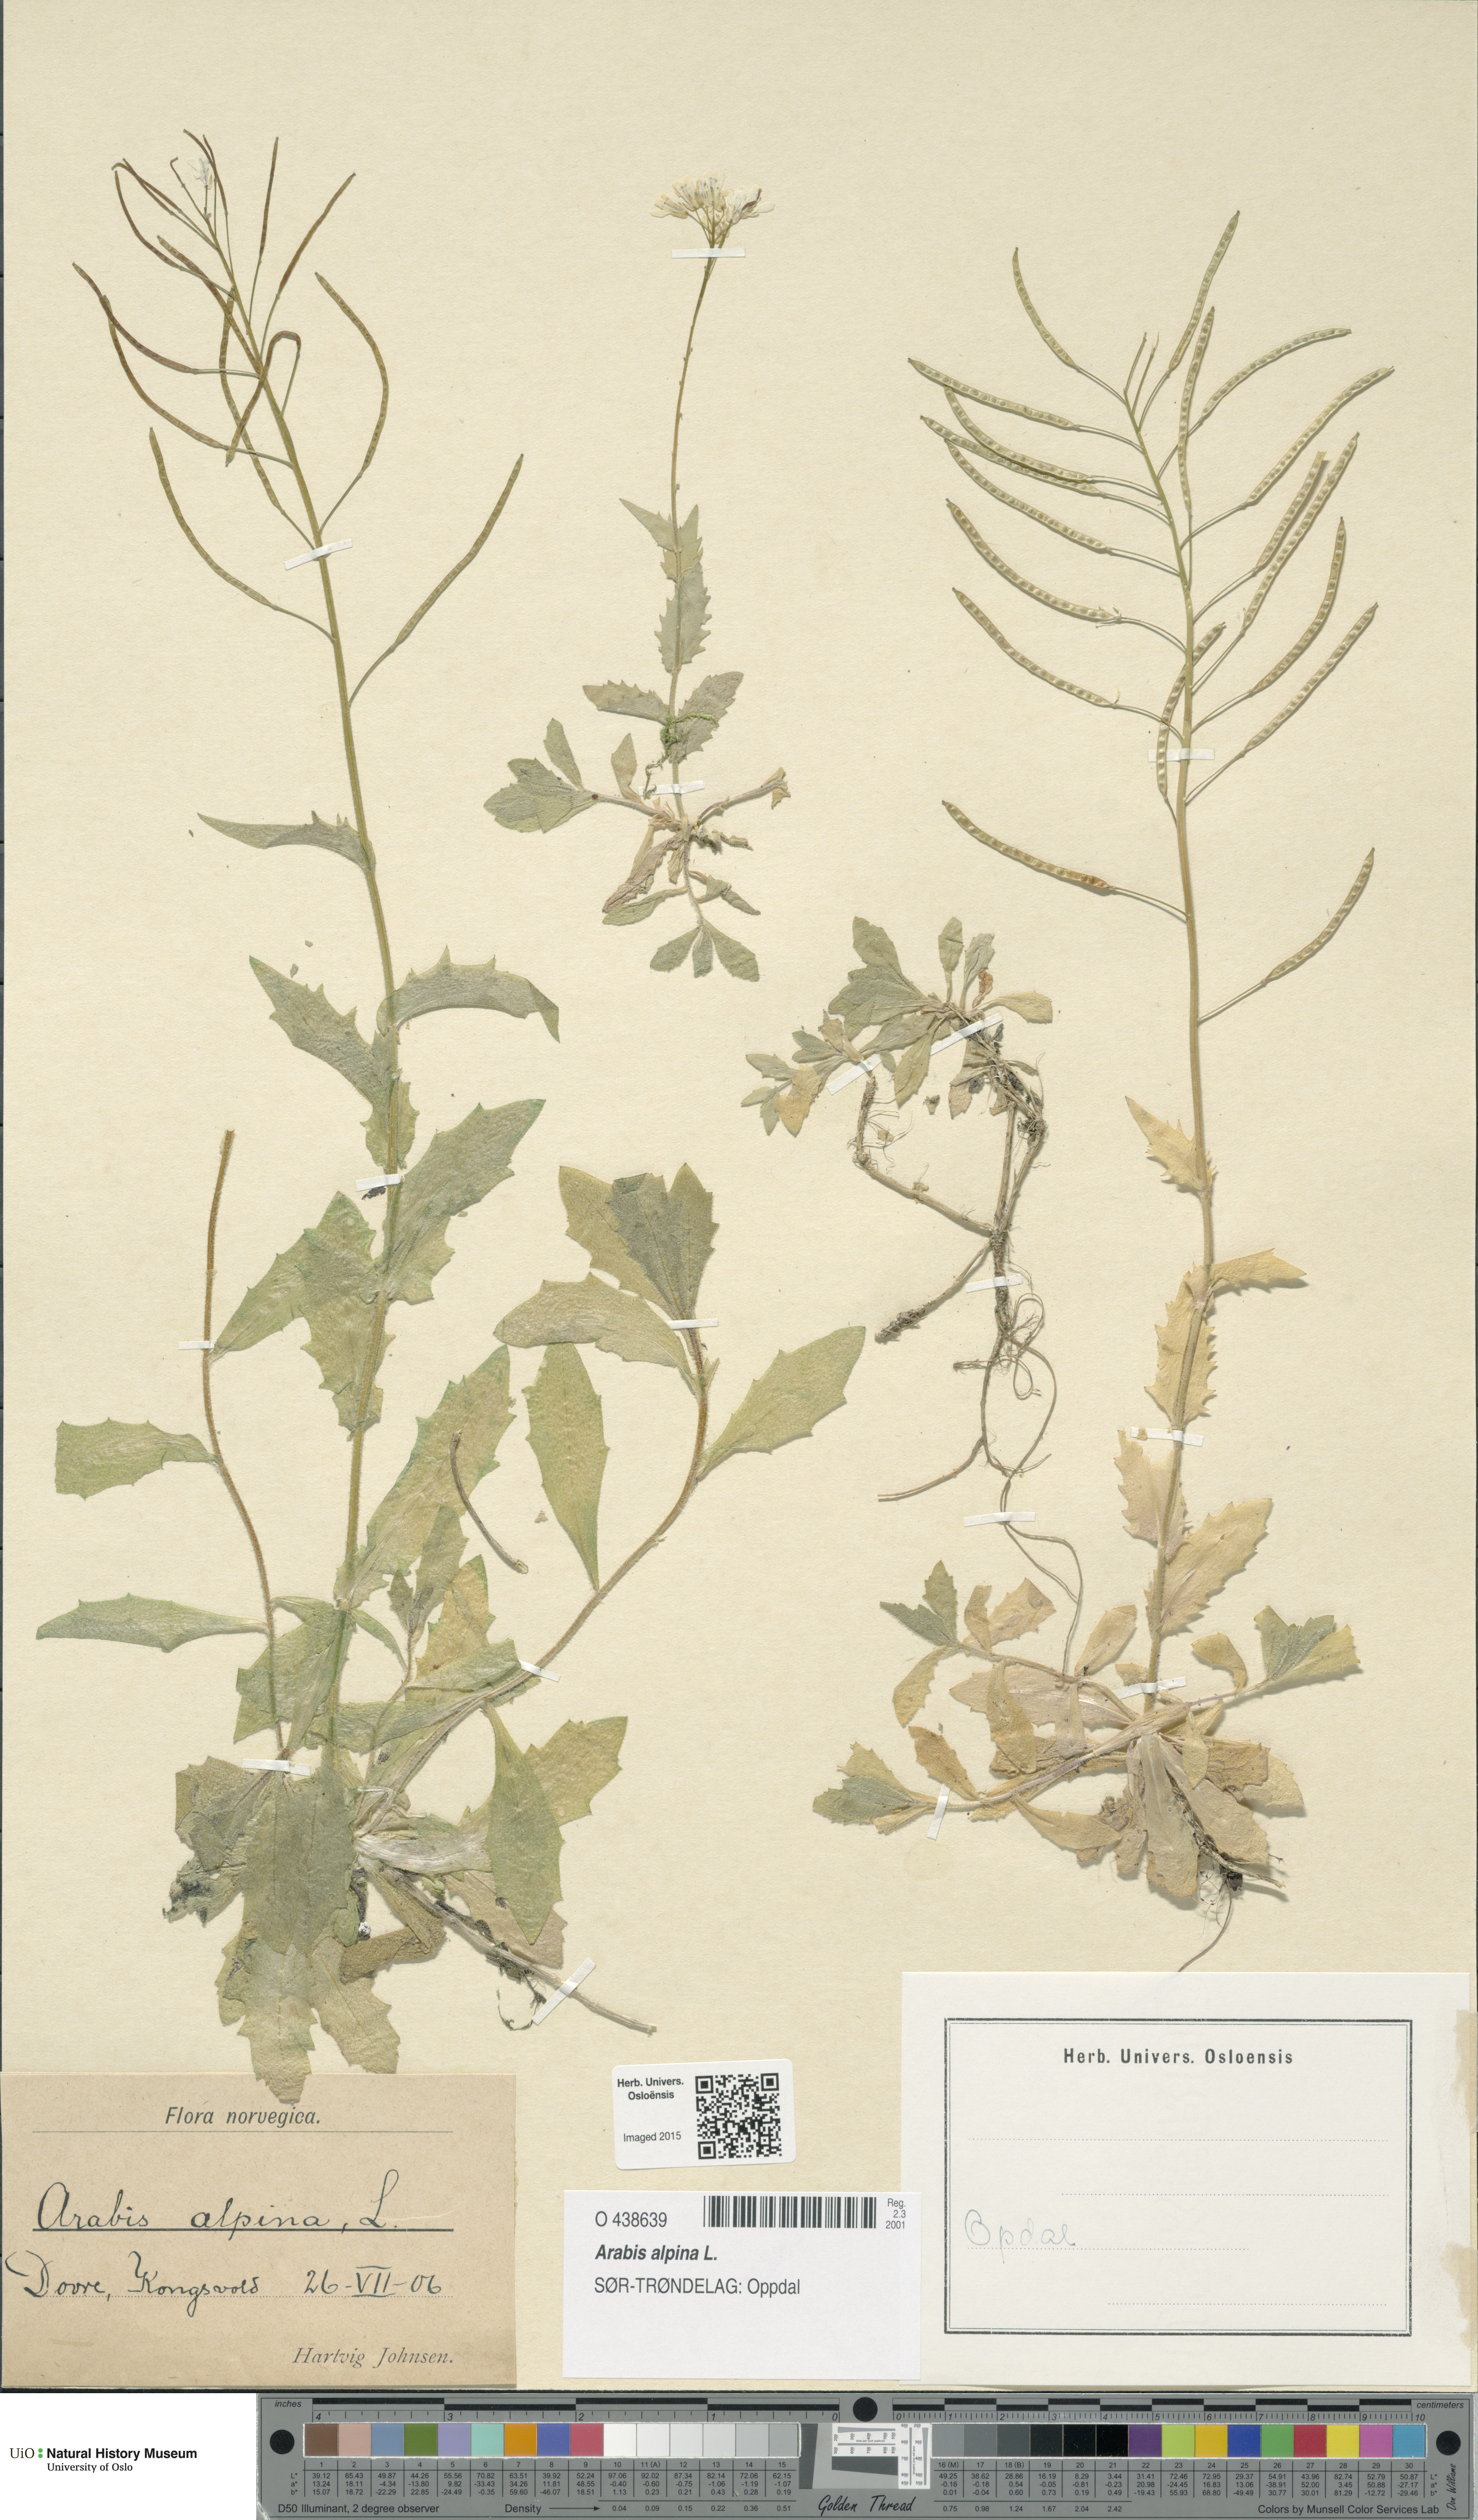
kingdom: Plantae
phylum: Tracheophyta
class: Magnoliopsida
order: Brassicales
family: Brassicaceae
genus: Arabis
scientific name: Arabis alpina
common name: Alpine rock-cress
